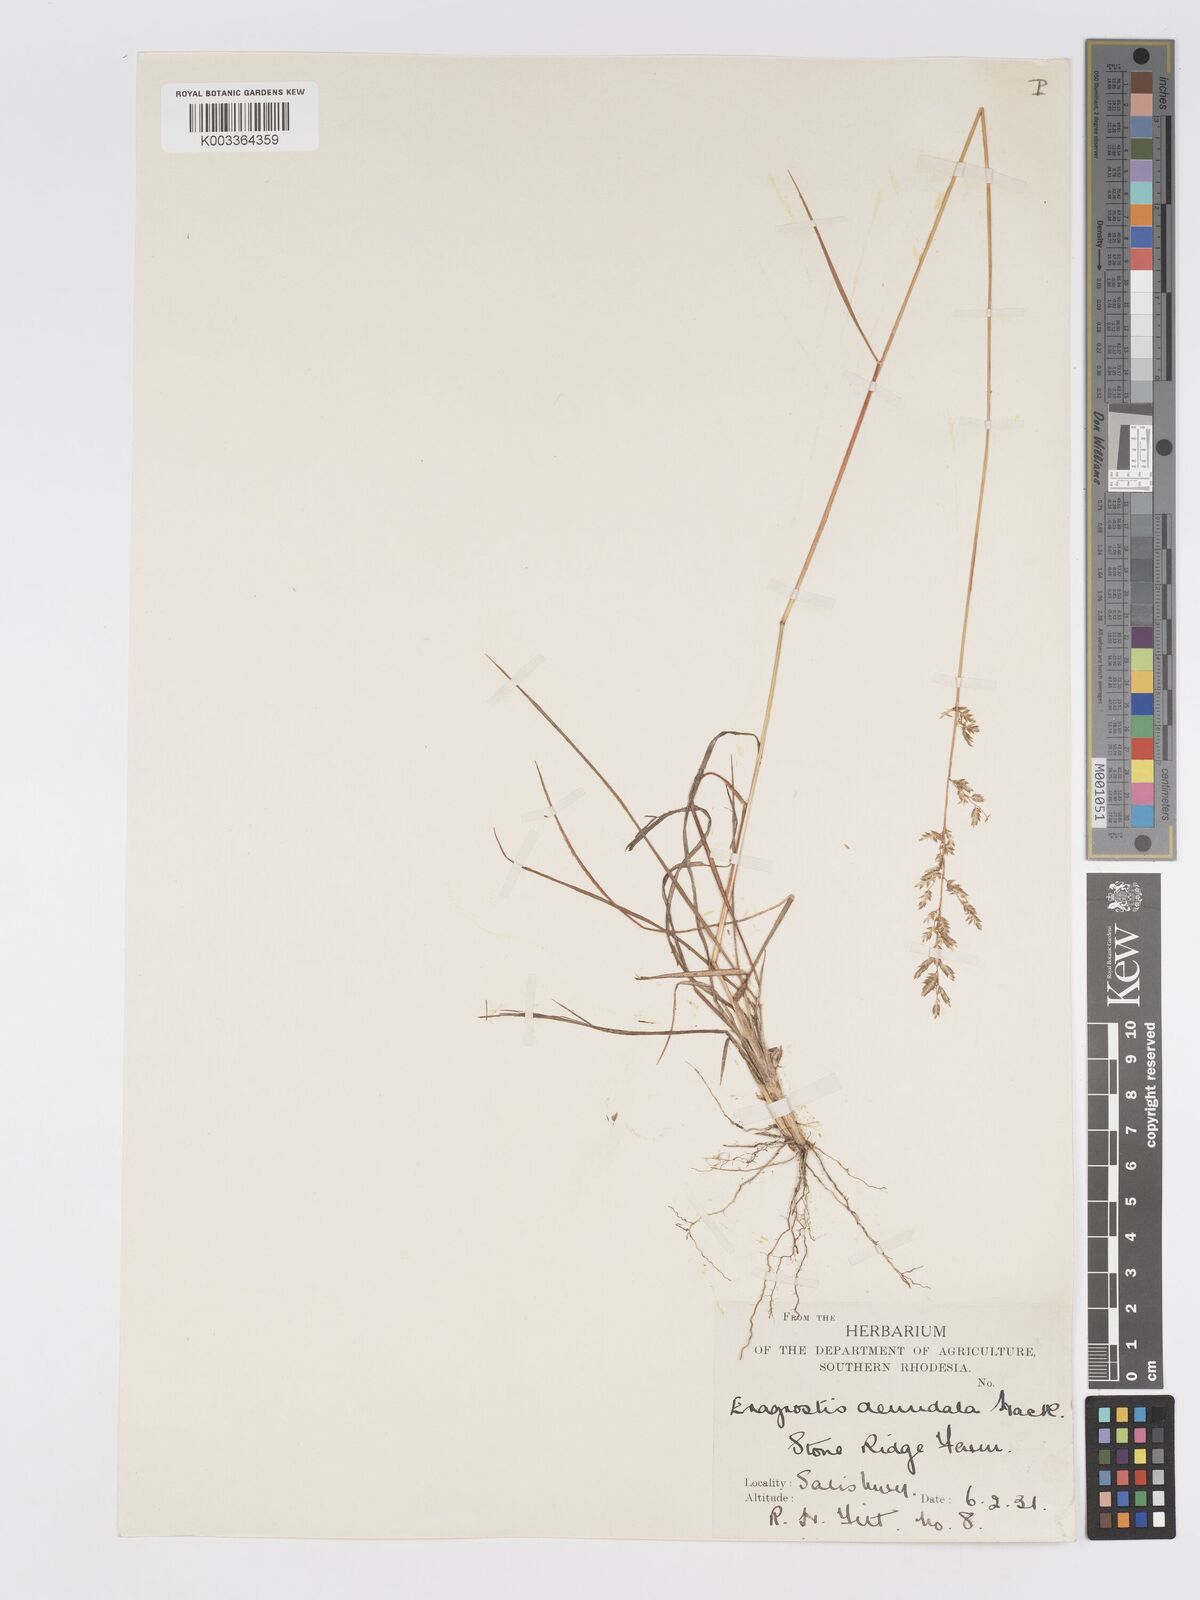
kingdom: Plantae
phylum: Tracheophyta
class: Liliopsida
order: Poales
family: Poaceae
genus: Eragrostis
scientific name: Eragrostis racemosa
